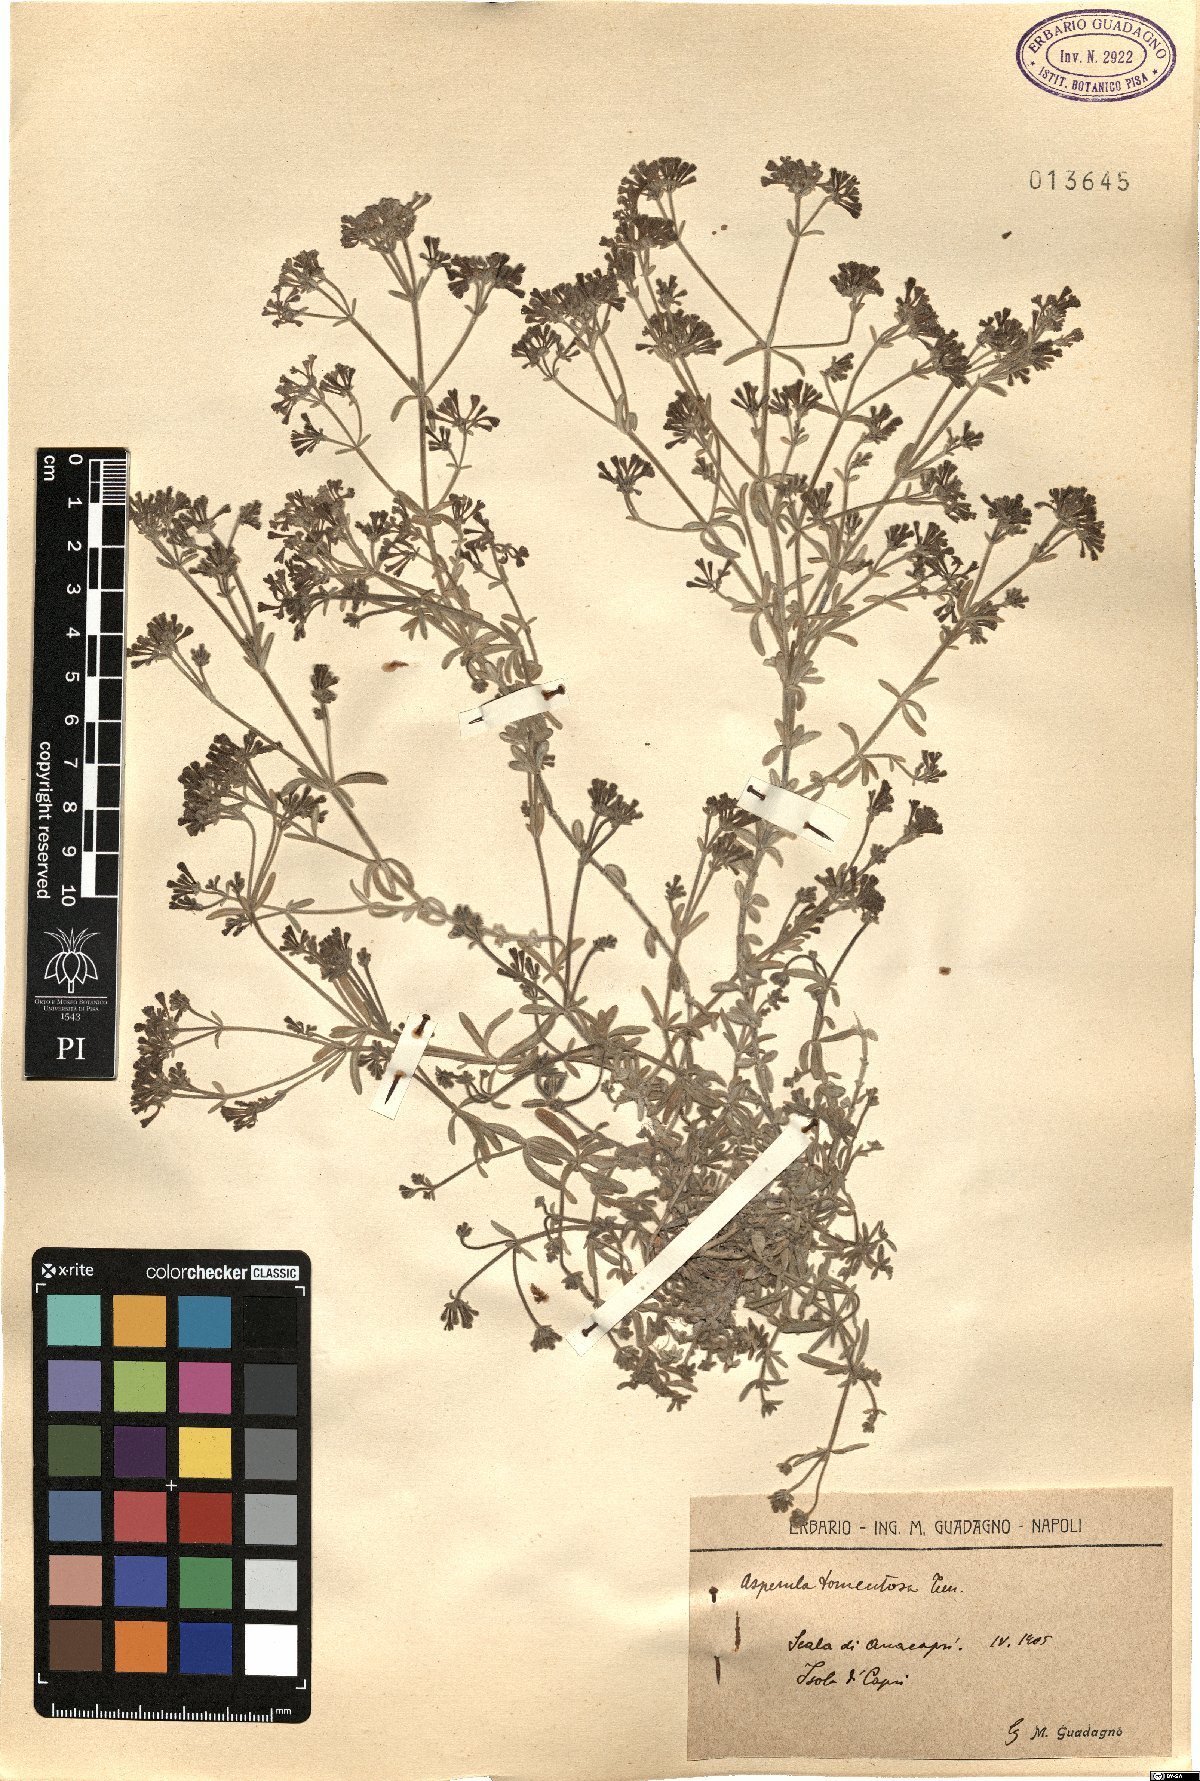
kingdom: Plantae
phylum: Tracheophyta
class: Magnoliopsida
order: Gentianales
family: Rubiaceae
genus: Cynanchica
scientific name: Cynanchica crassifolia
